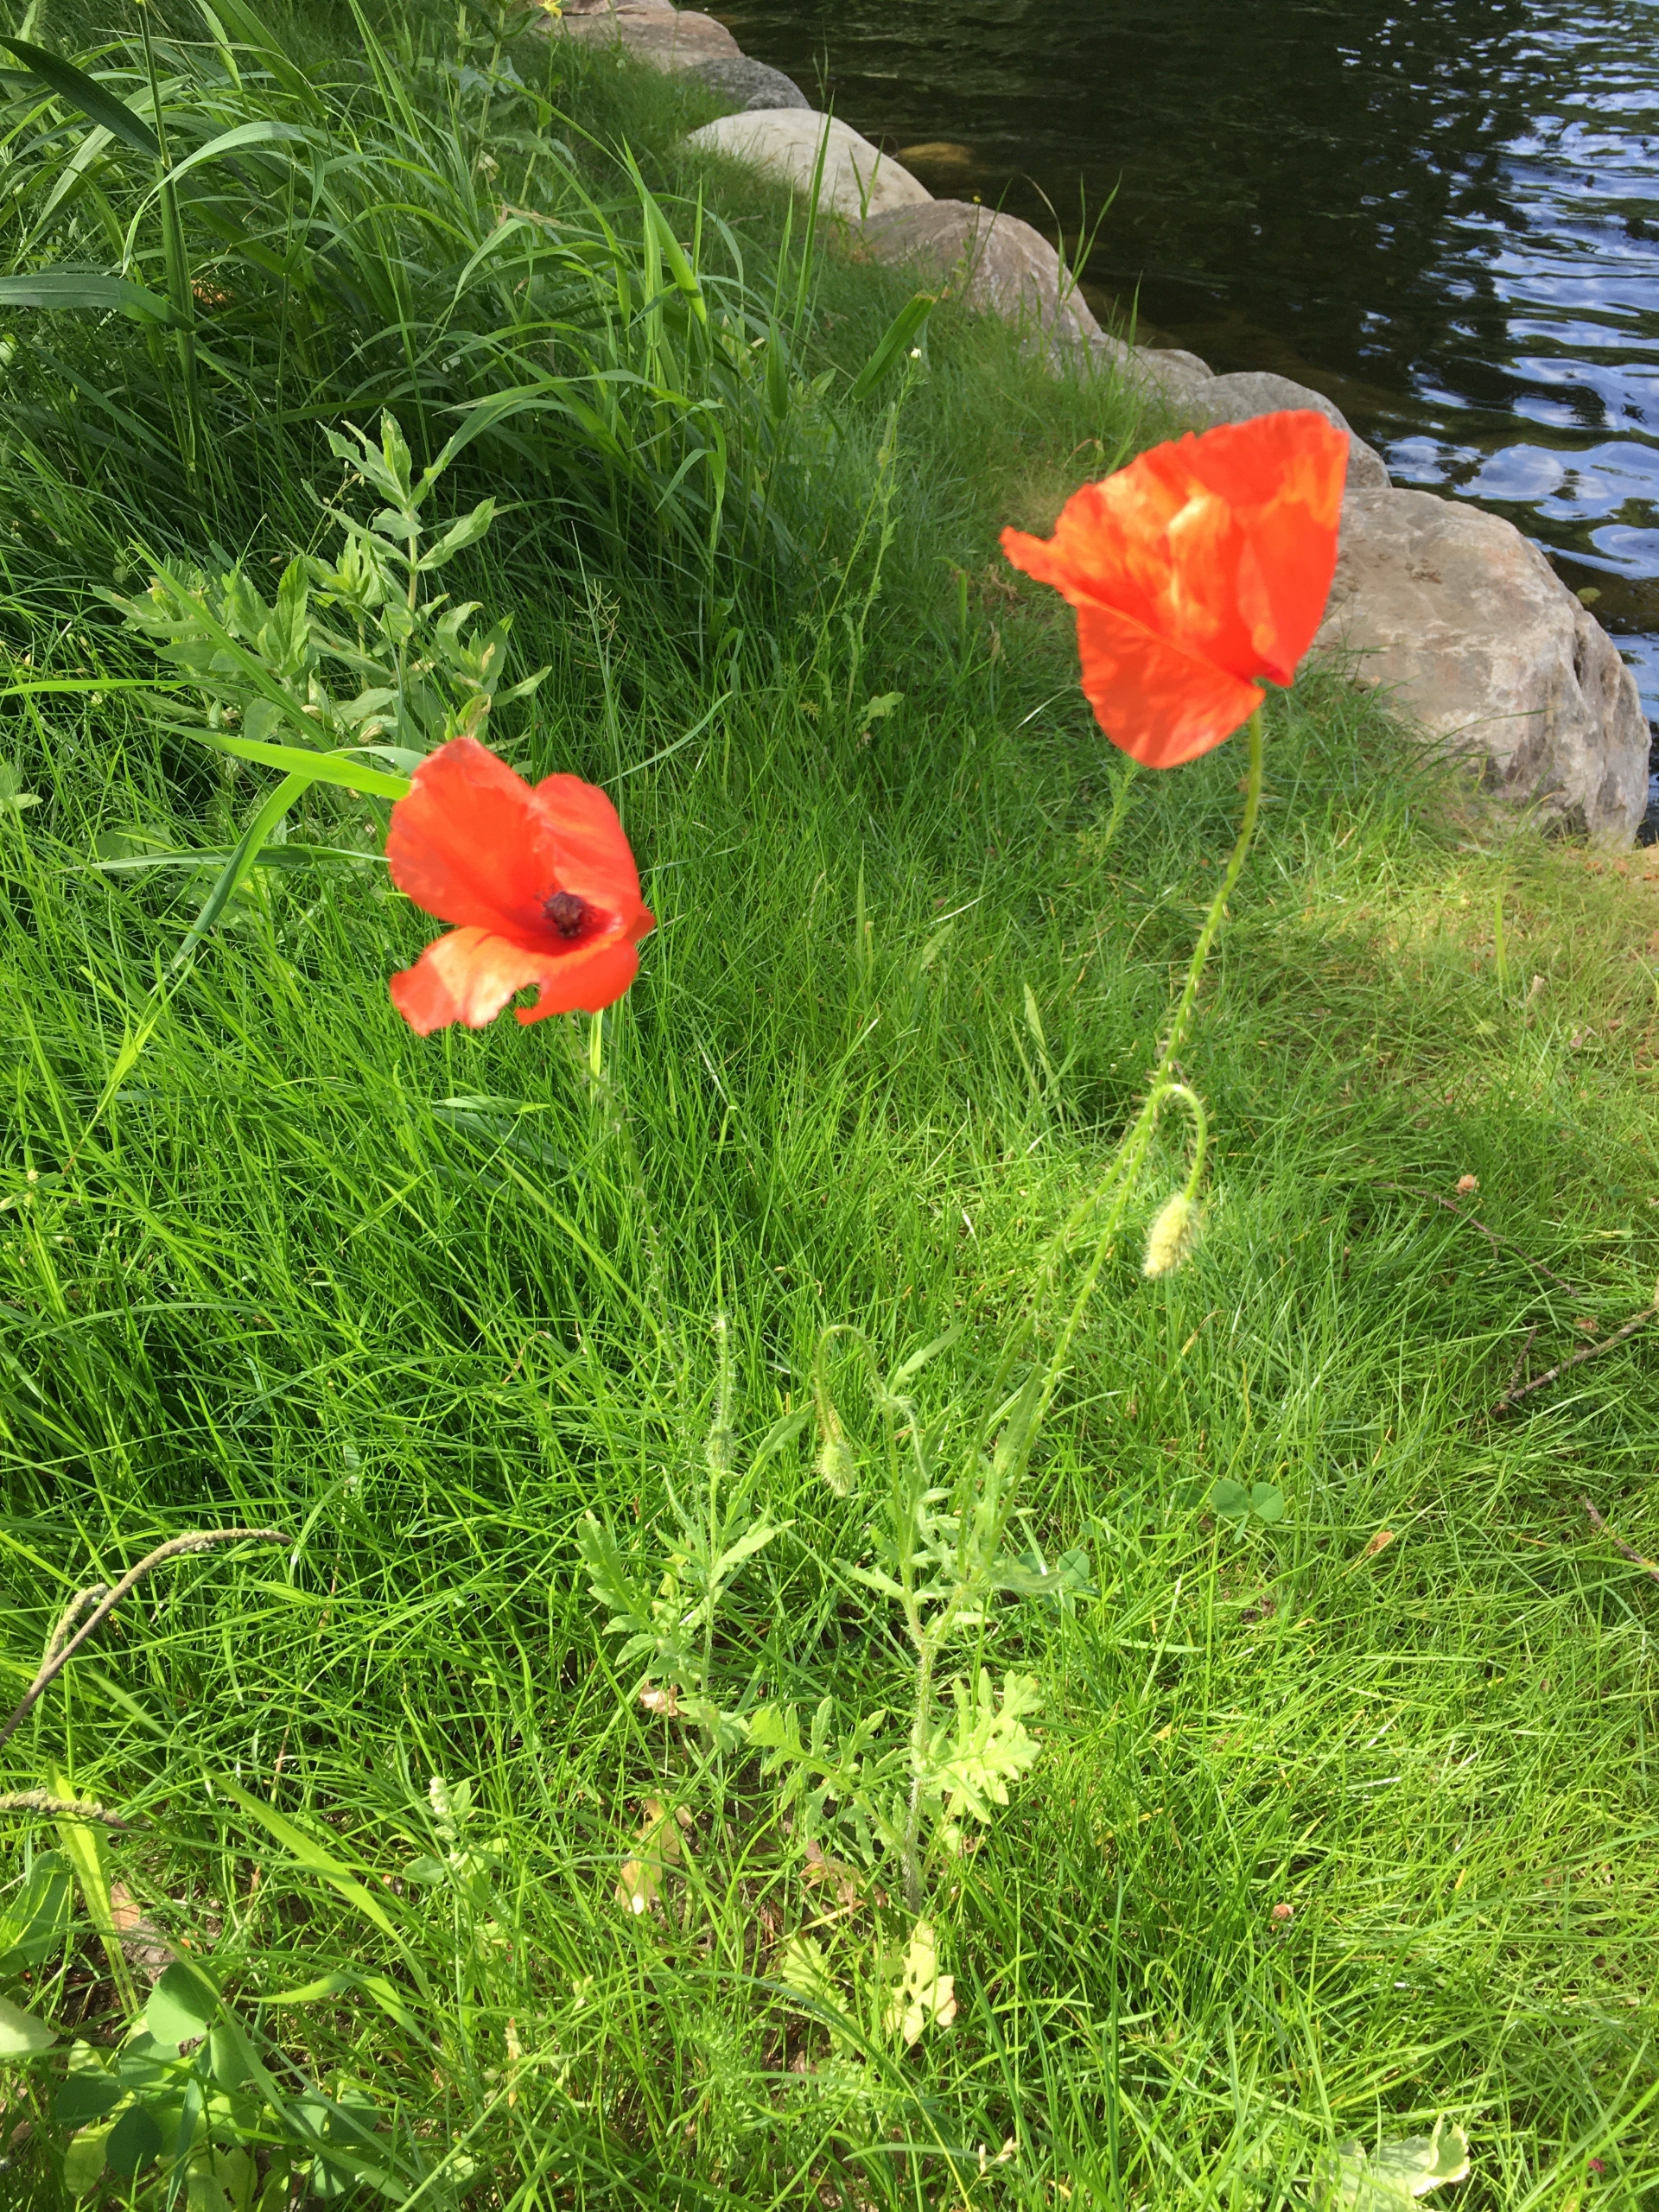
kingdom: Plantae
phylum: Tracheophyta
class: Magnoliopsida
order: Ranunculales
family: Papaveraceae
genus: Papaver
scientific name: Papaver rhoeas
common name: Korn-valmue
